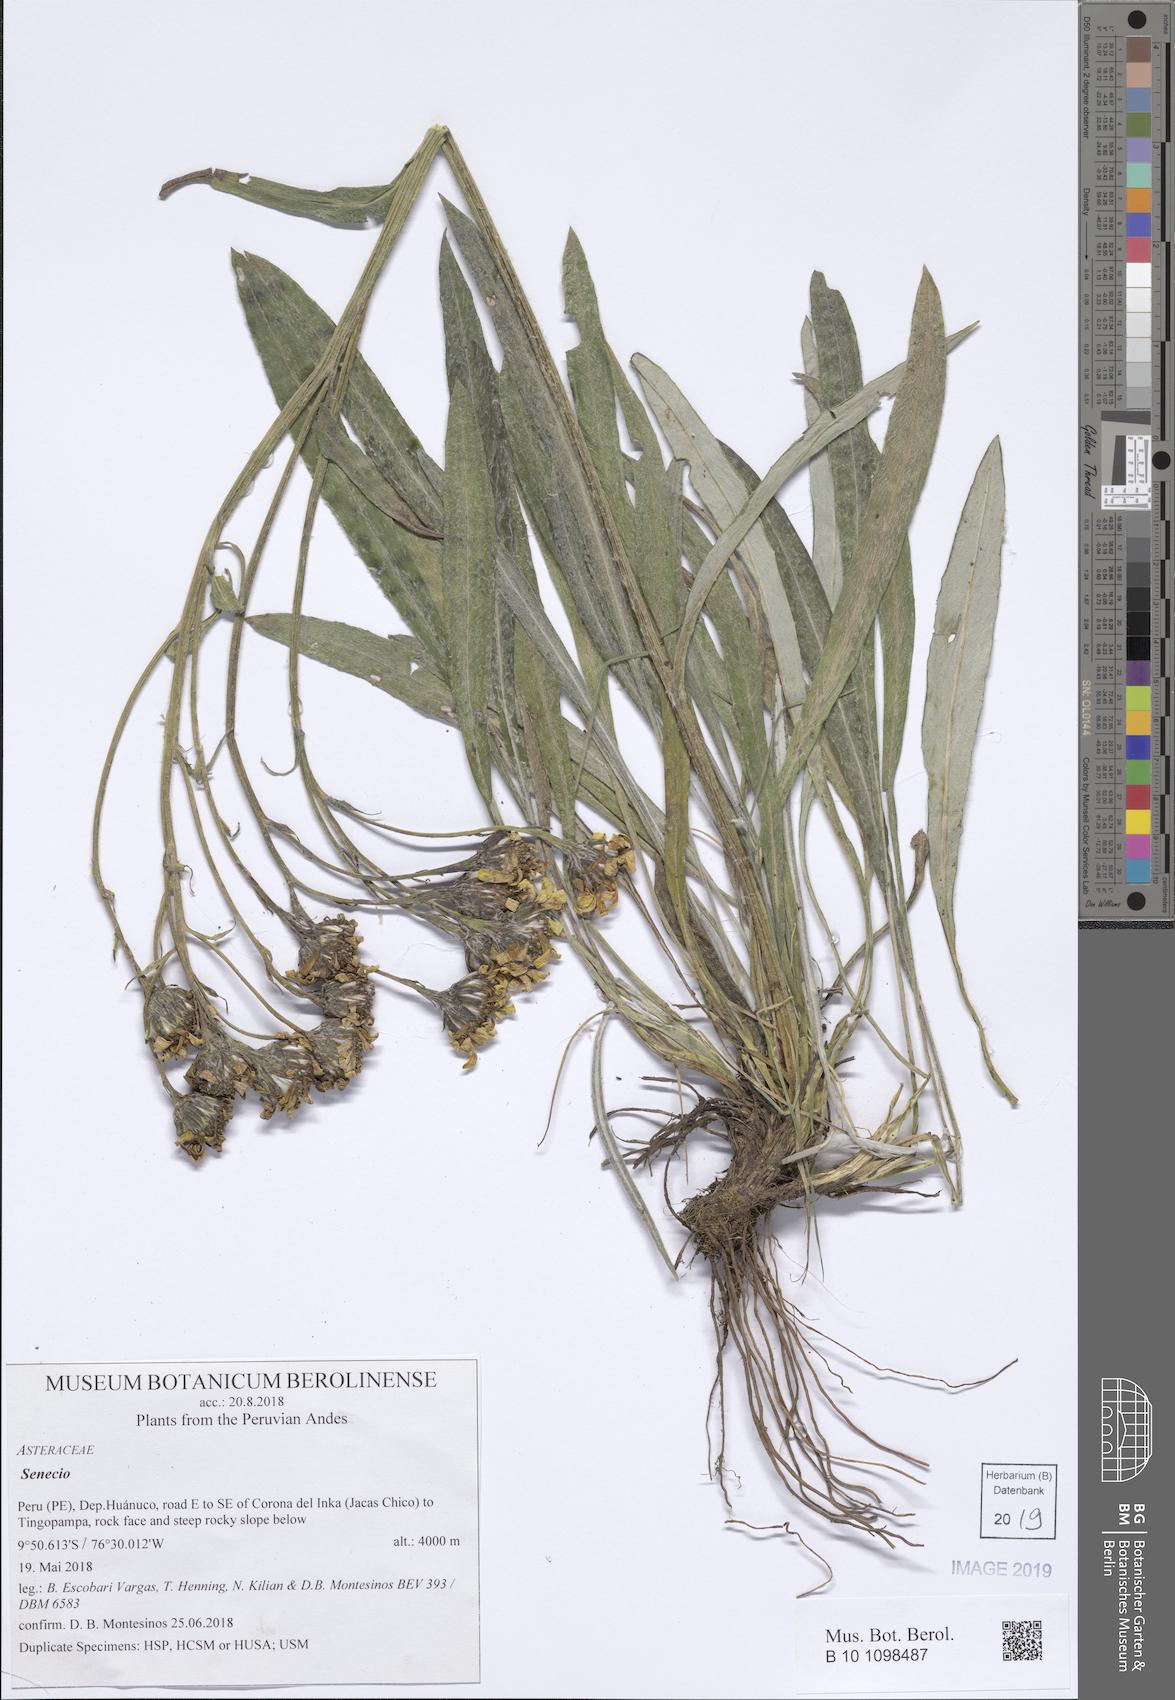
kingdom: Plantae
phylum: Tracheophyta
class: Magnoliopsida
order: Asterales
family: Asteraceae
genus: Senecio
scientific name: Senecio comosus
